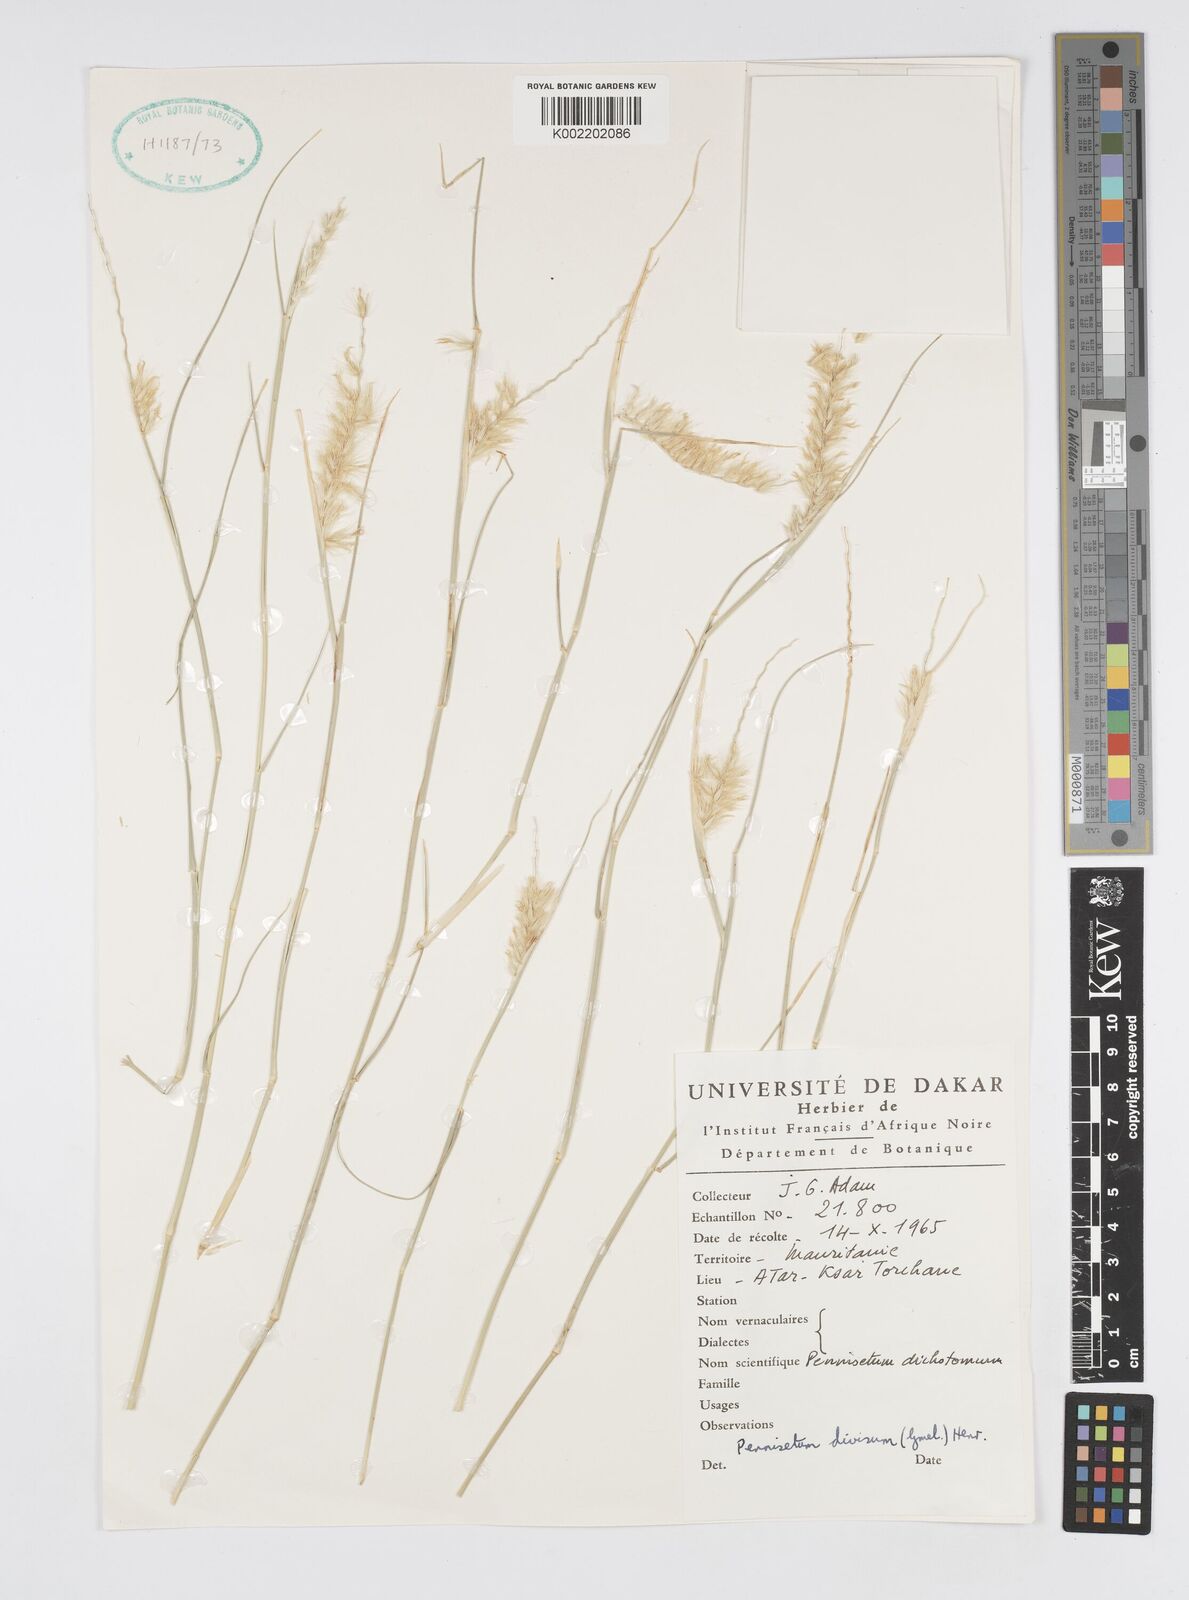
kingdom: Plantae
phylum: Tracheophyta
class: Liliopsida
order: Poales
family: Poaceae
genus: Cenchrus
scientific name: Cenchrus divisus
